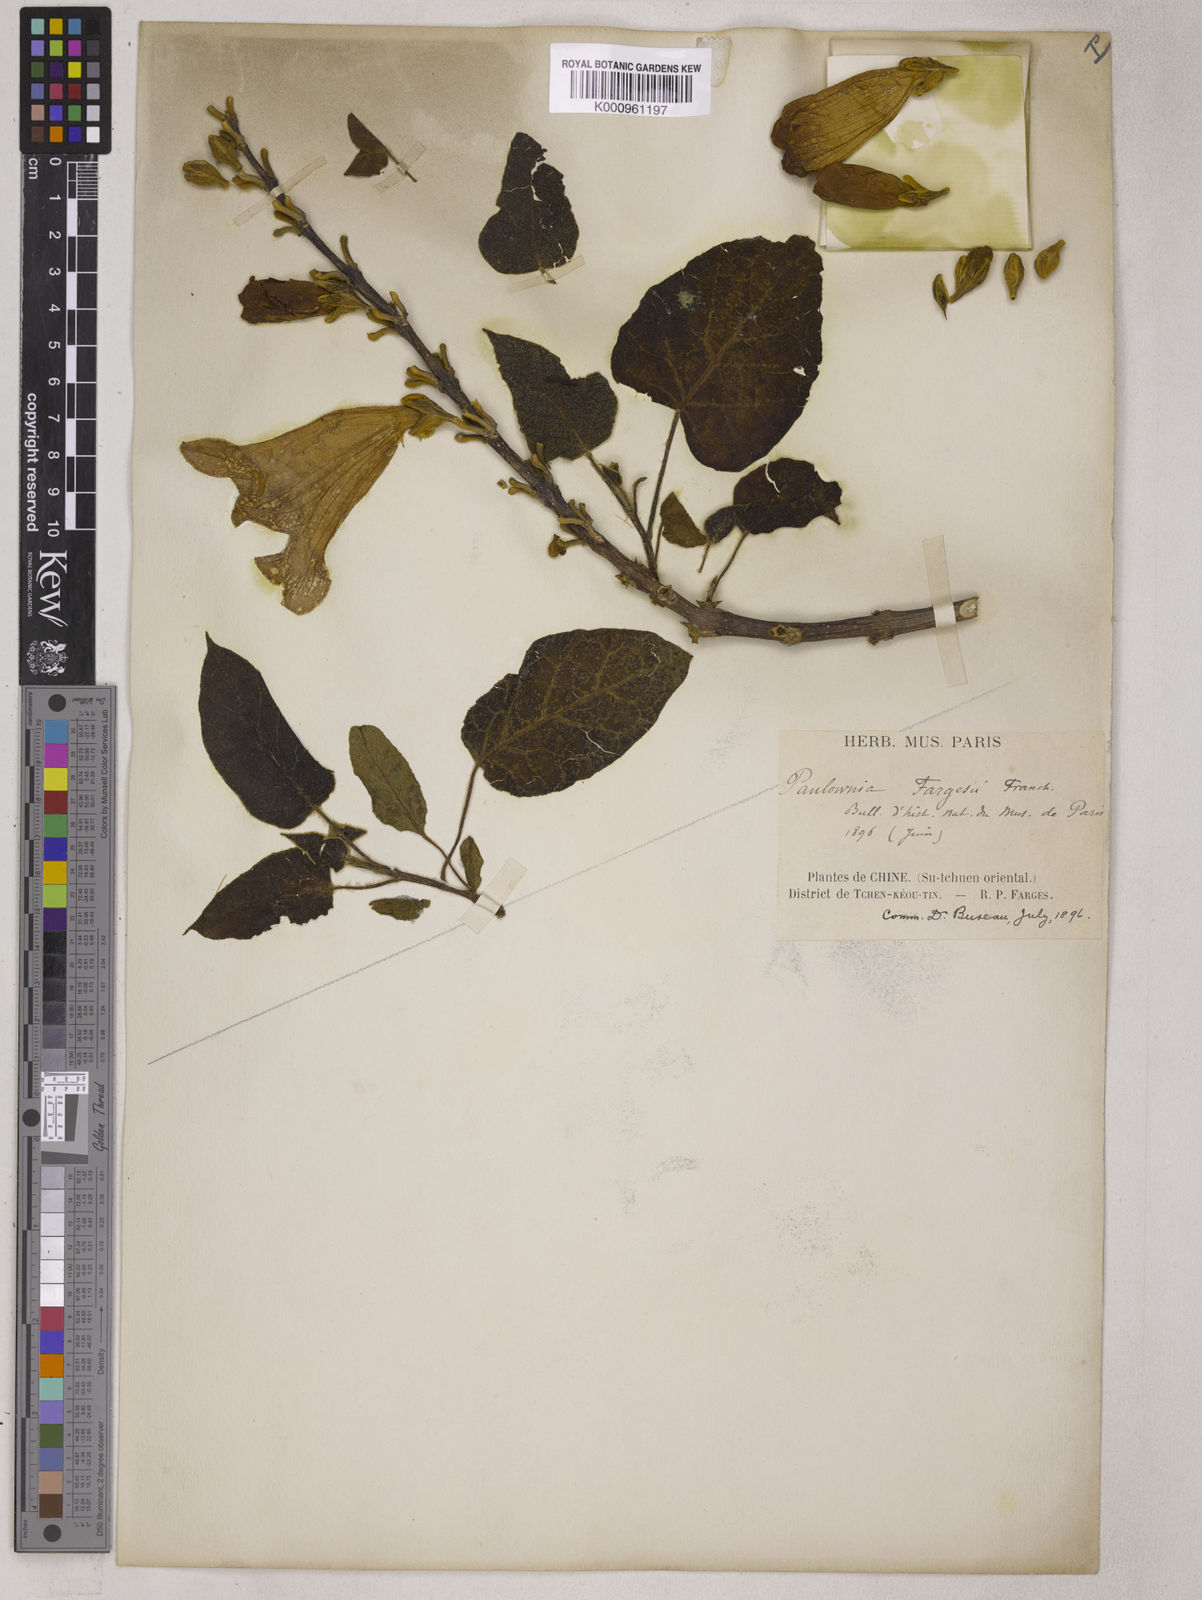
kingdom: Plantae
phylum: Tracheophyta
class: Magnoliopsida
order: Lamiales
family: Paulowniaceae
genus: Paulownia
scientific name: Paulownia fargesii
